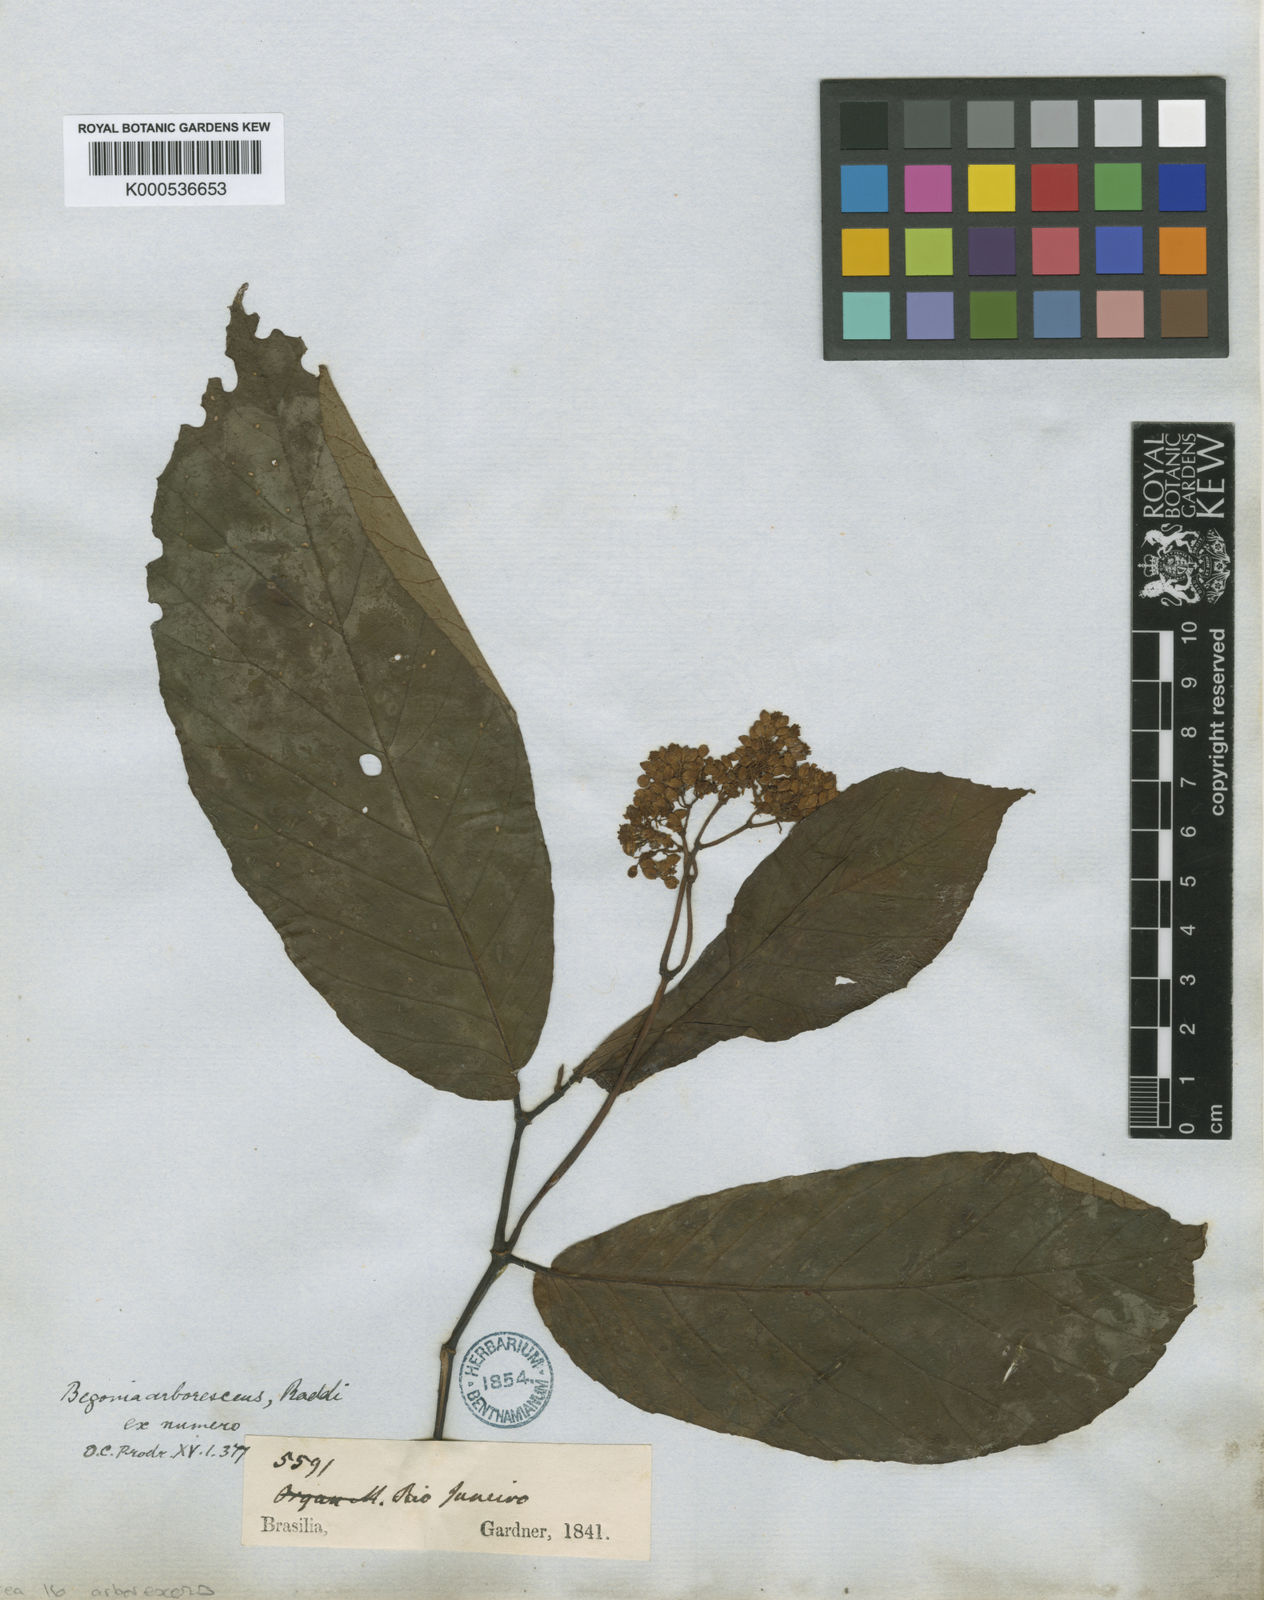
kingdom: Plantae
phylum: Tracheophyta
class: Magnoliopsida
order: Cucurbitales
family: Begoniaceae
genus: Begonia
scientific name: Begonia arborescens
